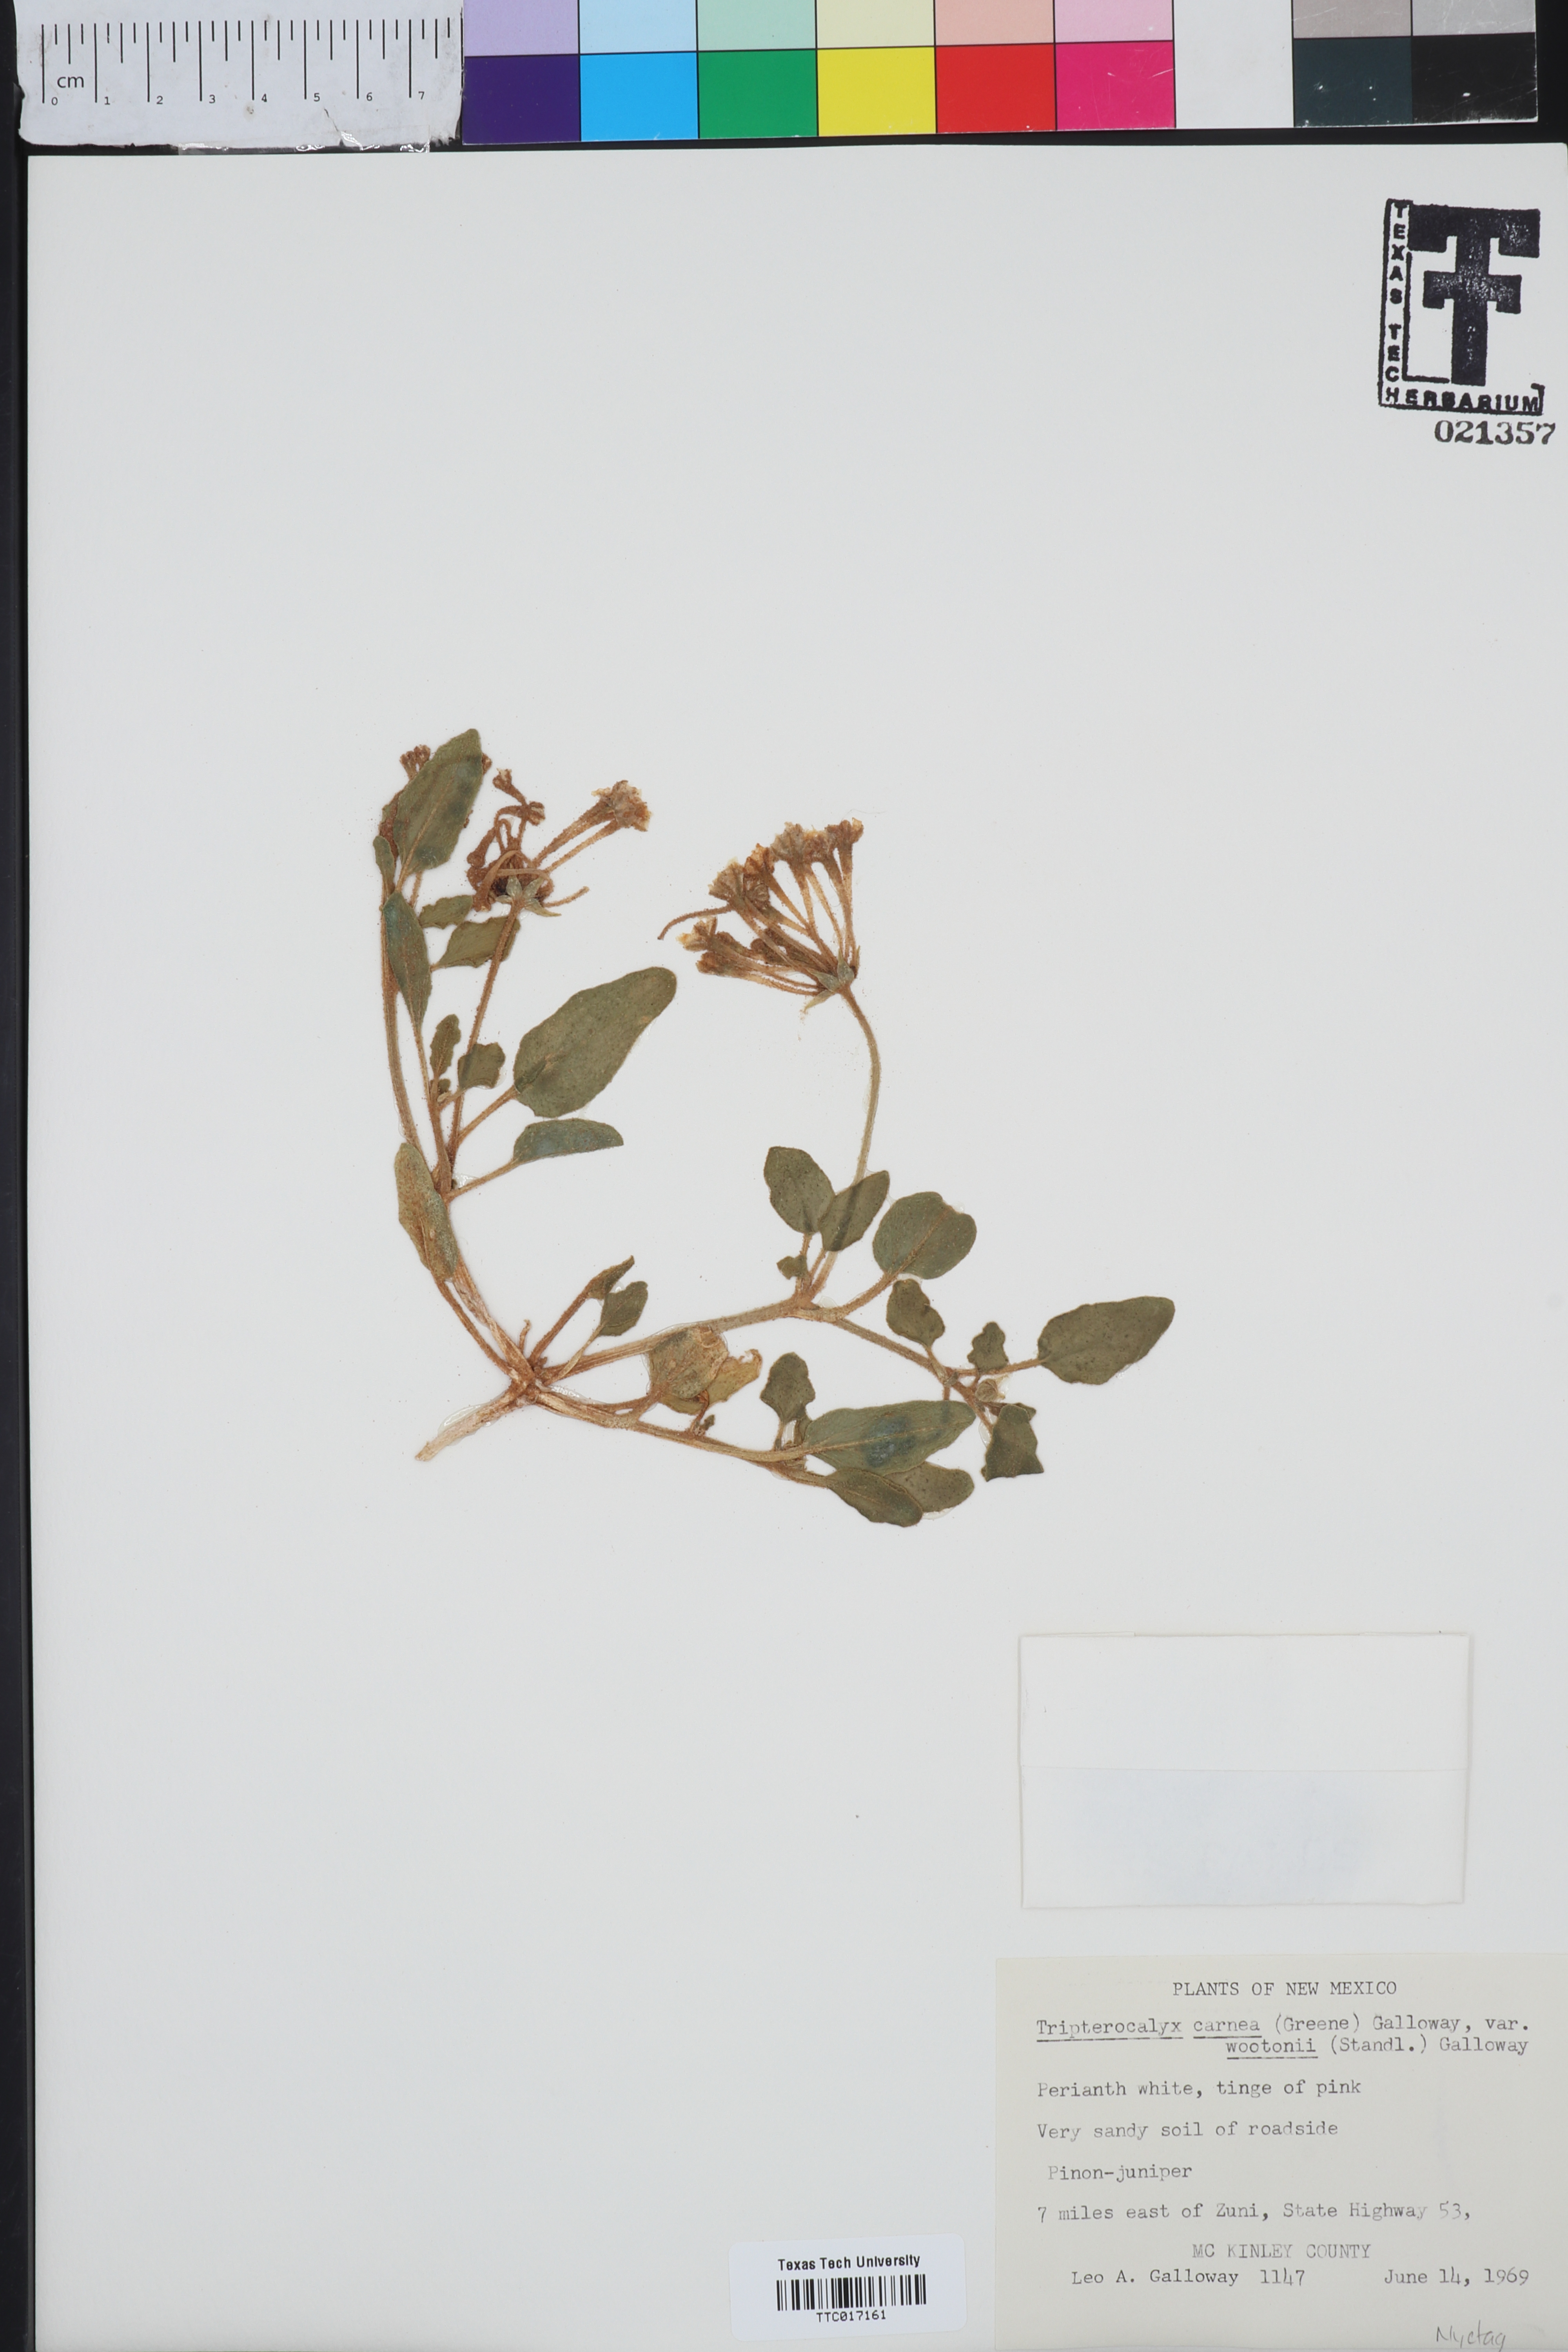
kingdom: Plantae
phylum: Tracheophyta
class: Magnoliopsida
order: Caryophyllales
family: Nyctaginaceae
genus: Tripterocalyx
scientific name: Tripterocalyx wootonii
